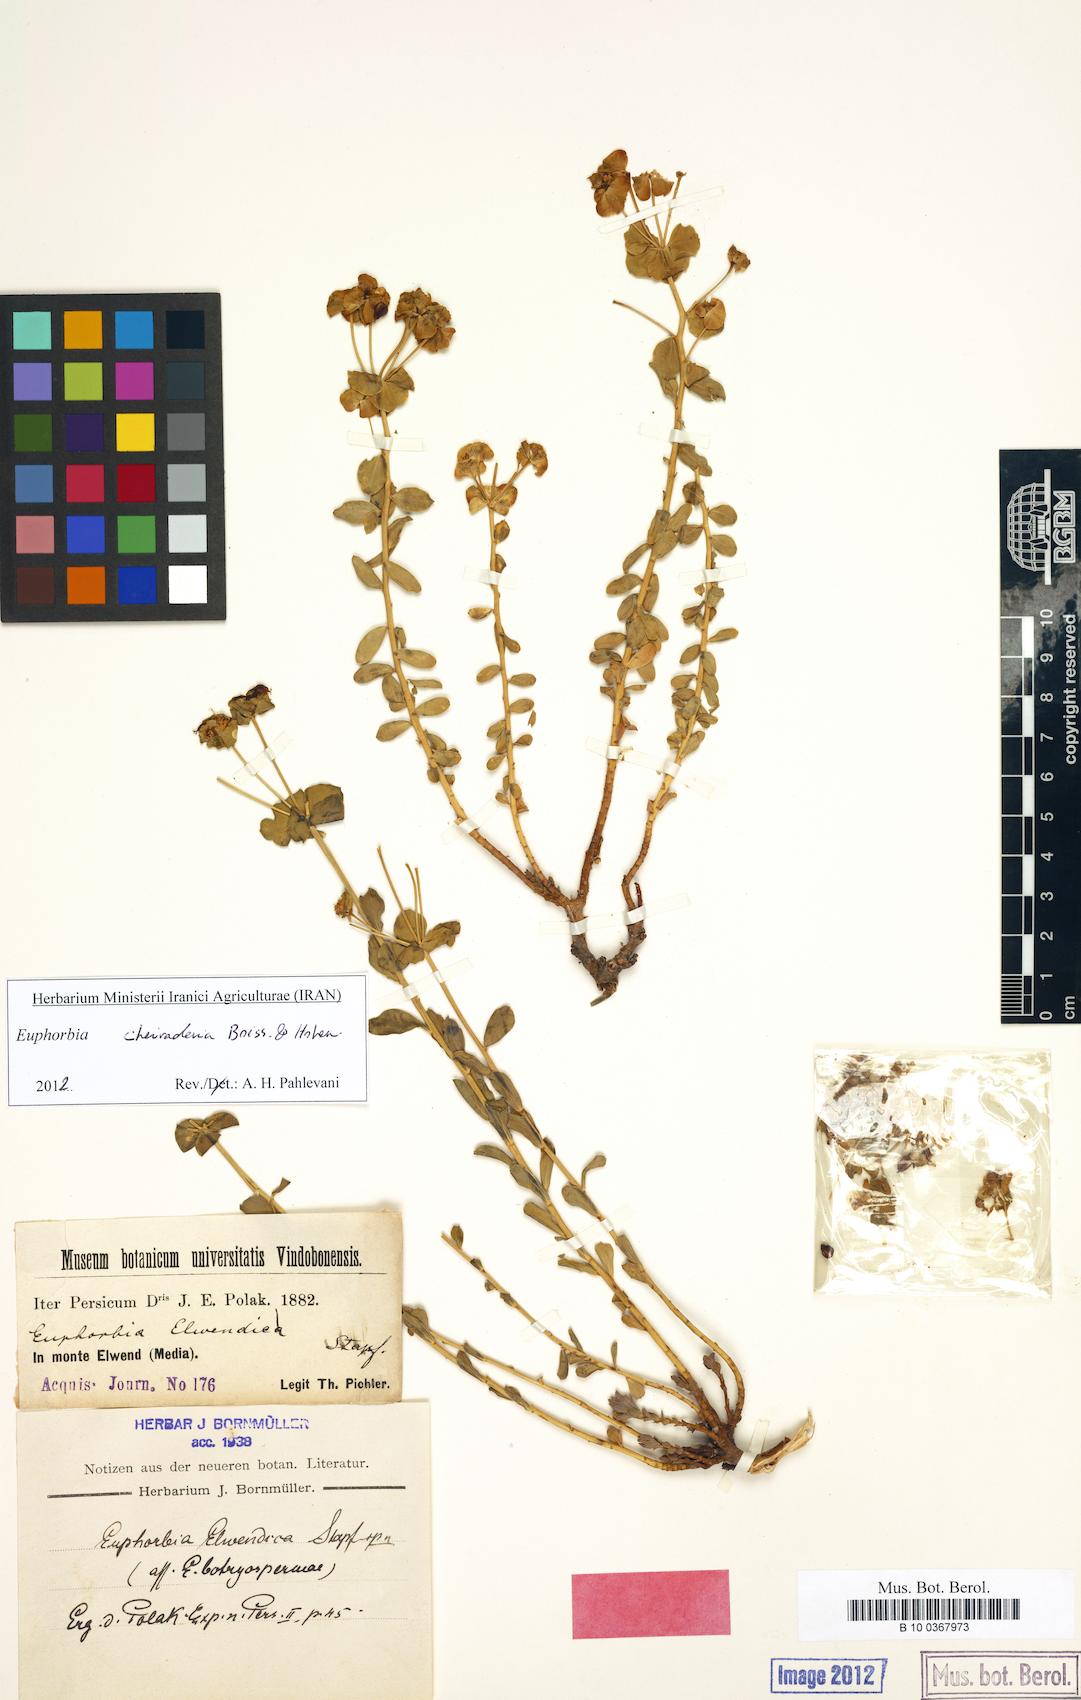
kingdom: Plantae
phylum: Tracheophyta
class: Magnoliopsida
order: Malpighiales
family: Euphorbiaceae
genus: Euphorbia
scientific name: Euphorbia cheiradenia
